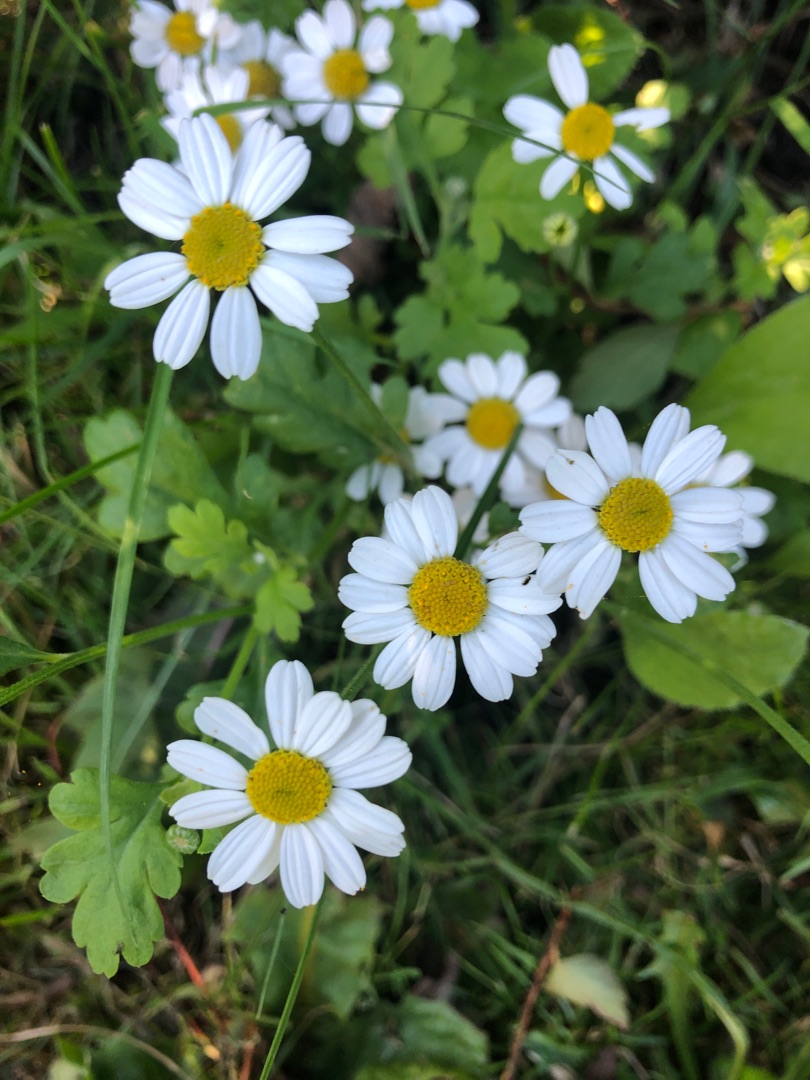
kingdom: Plantae
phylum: Tracheophyta
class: Magnoliopsida
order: Asterales
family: Asteraceae
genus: Tanacetum
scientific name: Tanacetum parthenium
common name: Matrem
